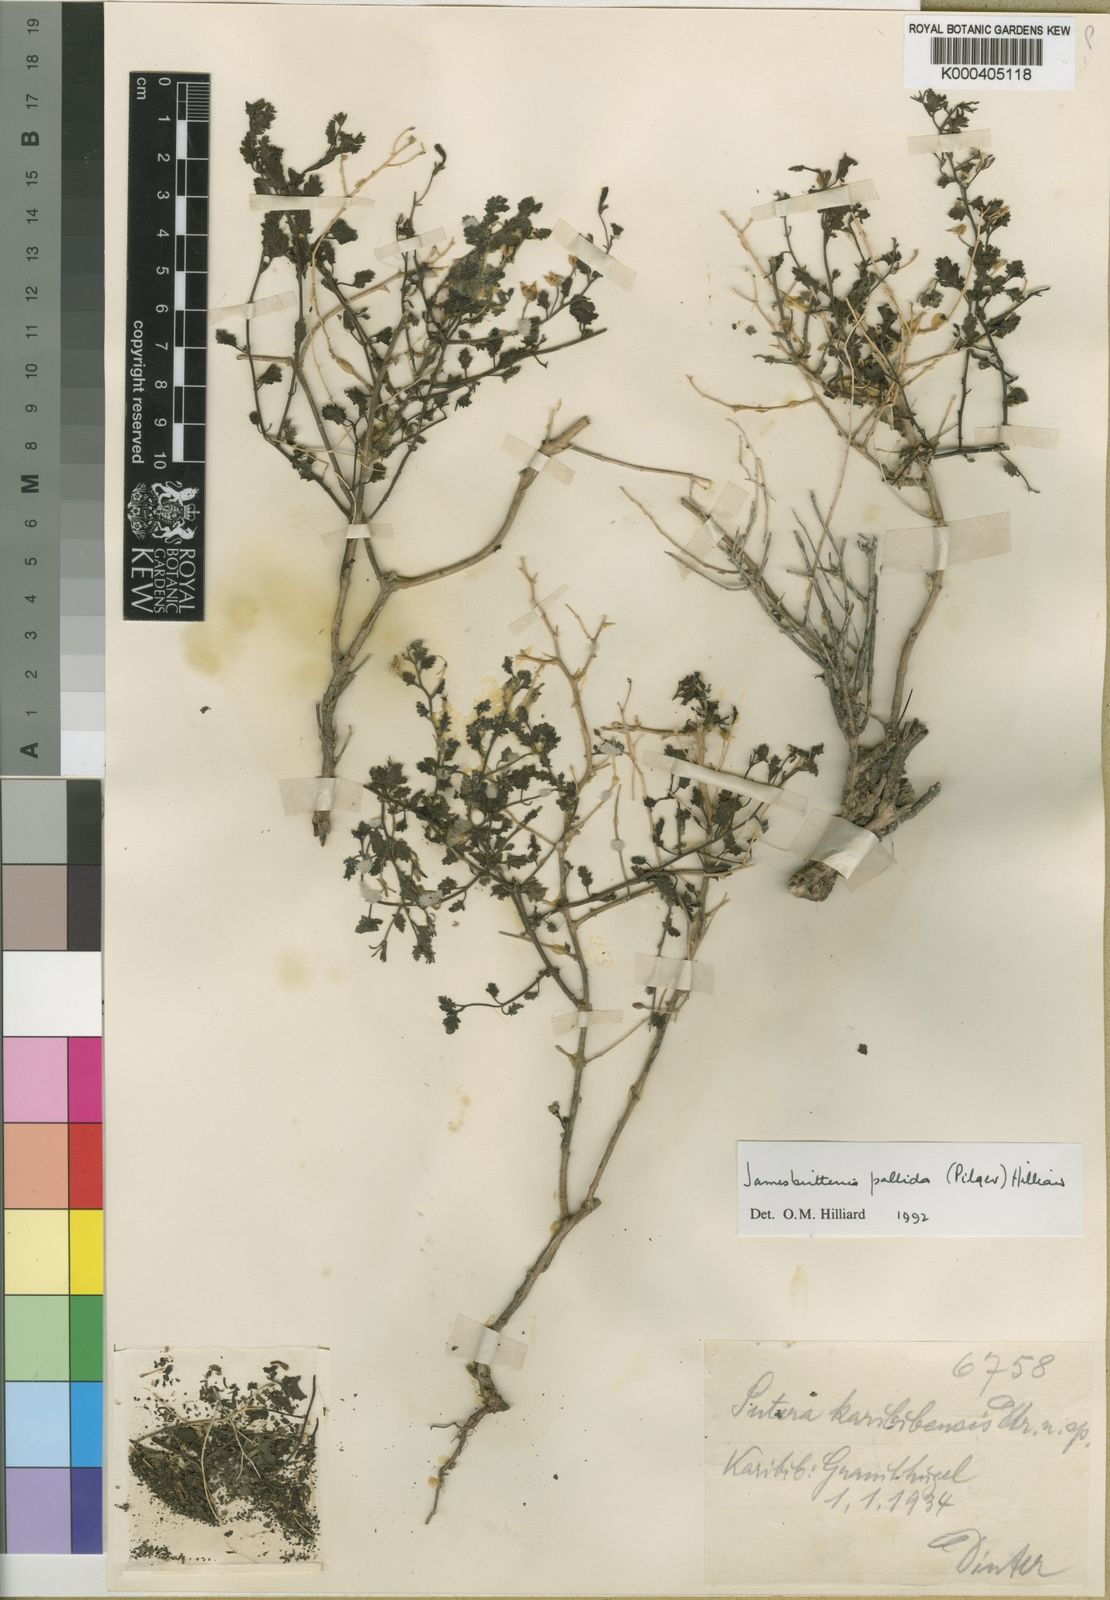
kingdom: Plantae
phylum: Tracheophyta
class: Magnoliopsida
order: Lamiales
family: Scrophulariaceae
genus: Jamesbrittenia
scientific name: Jamesbrittenia pallida
